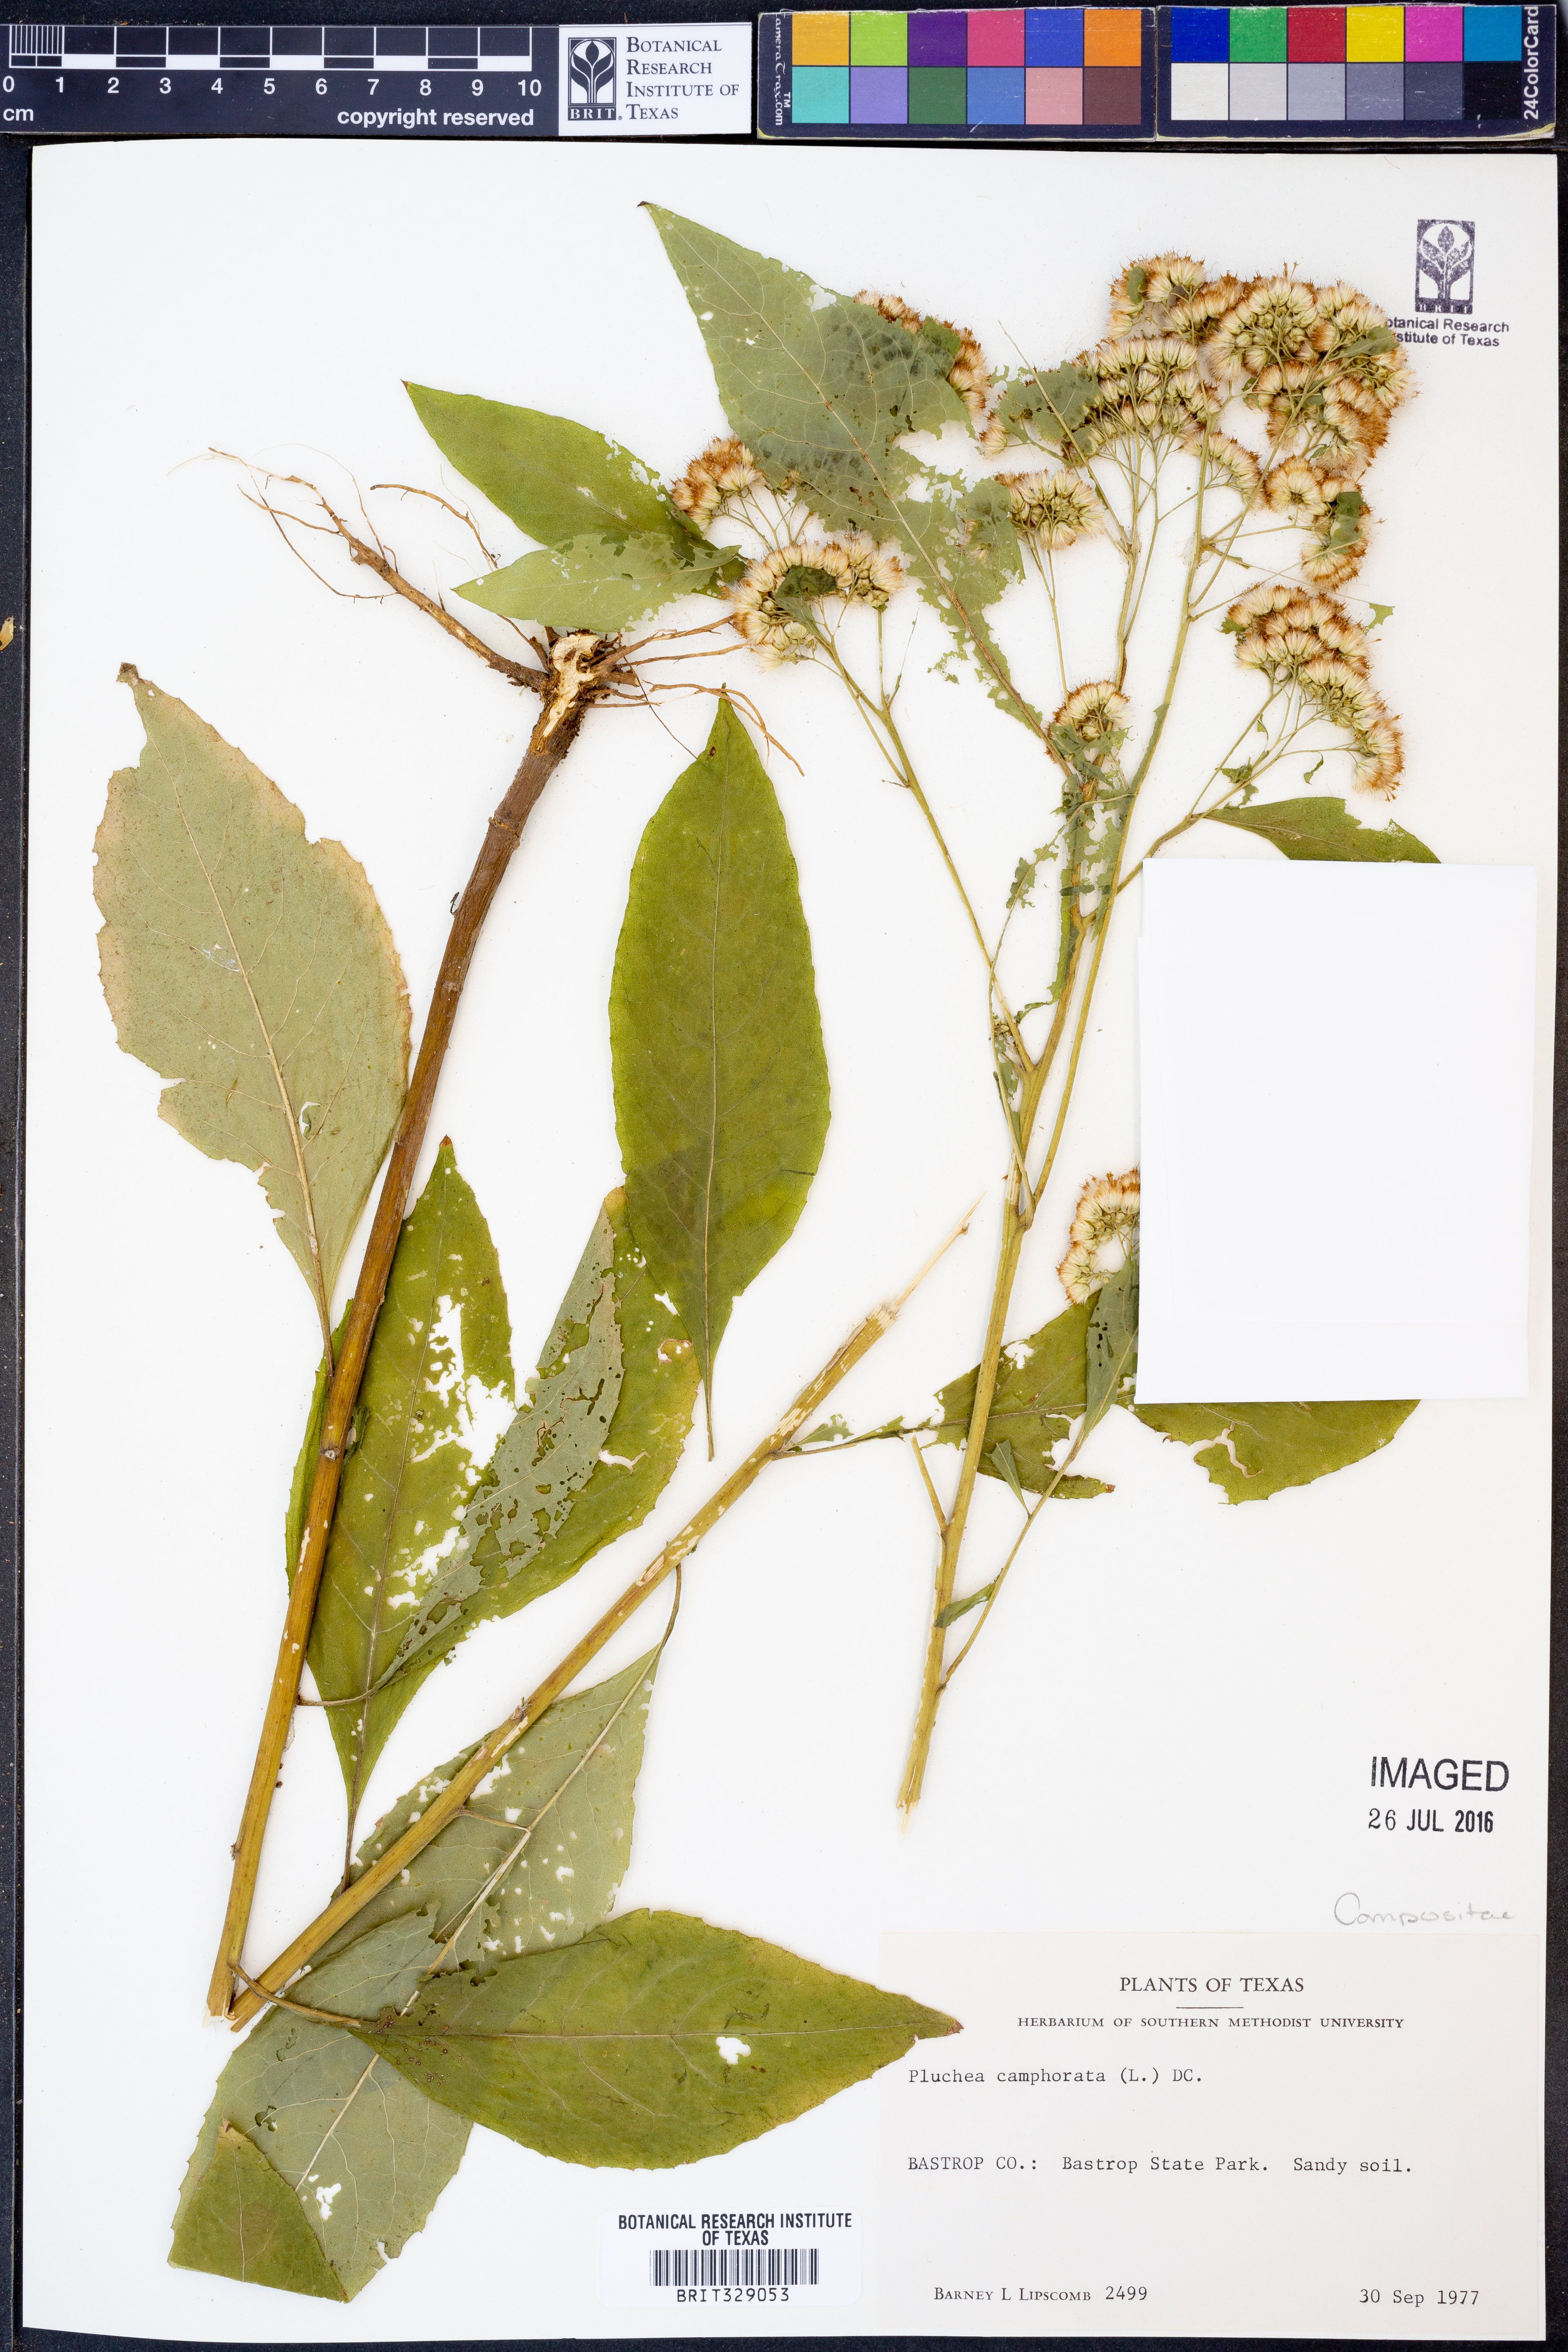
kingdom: Plantae
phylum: Tracheophyta
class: Magnoliopsida
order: Asterales
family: Asteraceae
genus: Pluchea
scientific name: Pluchea camphorata
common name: Camphor pluchea
